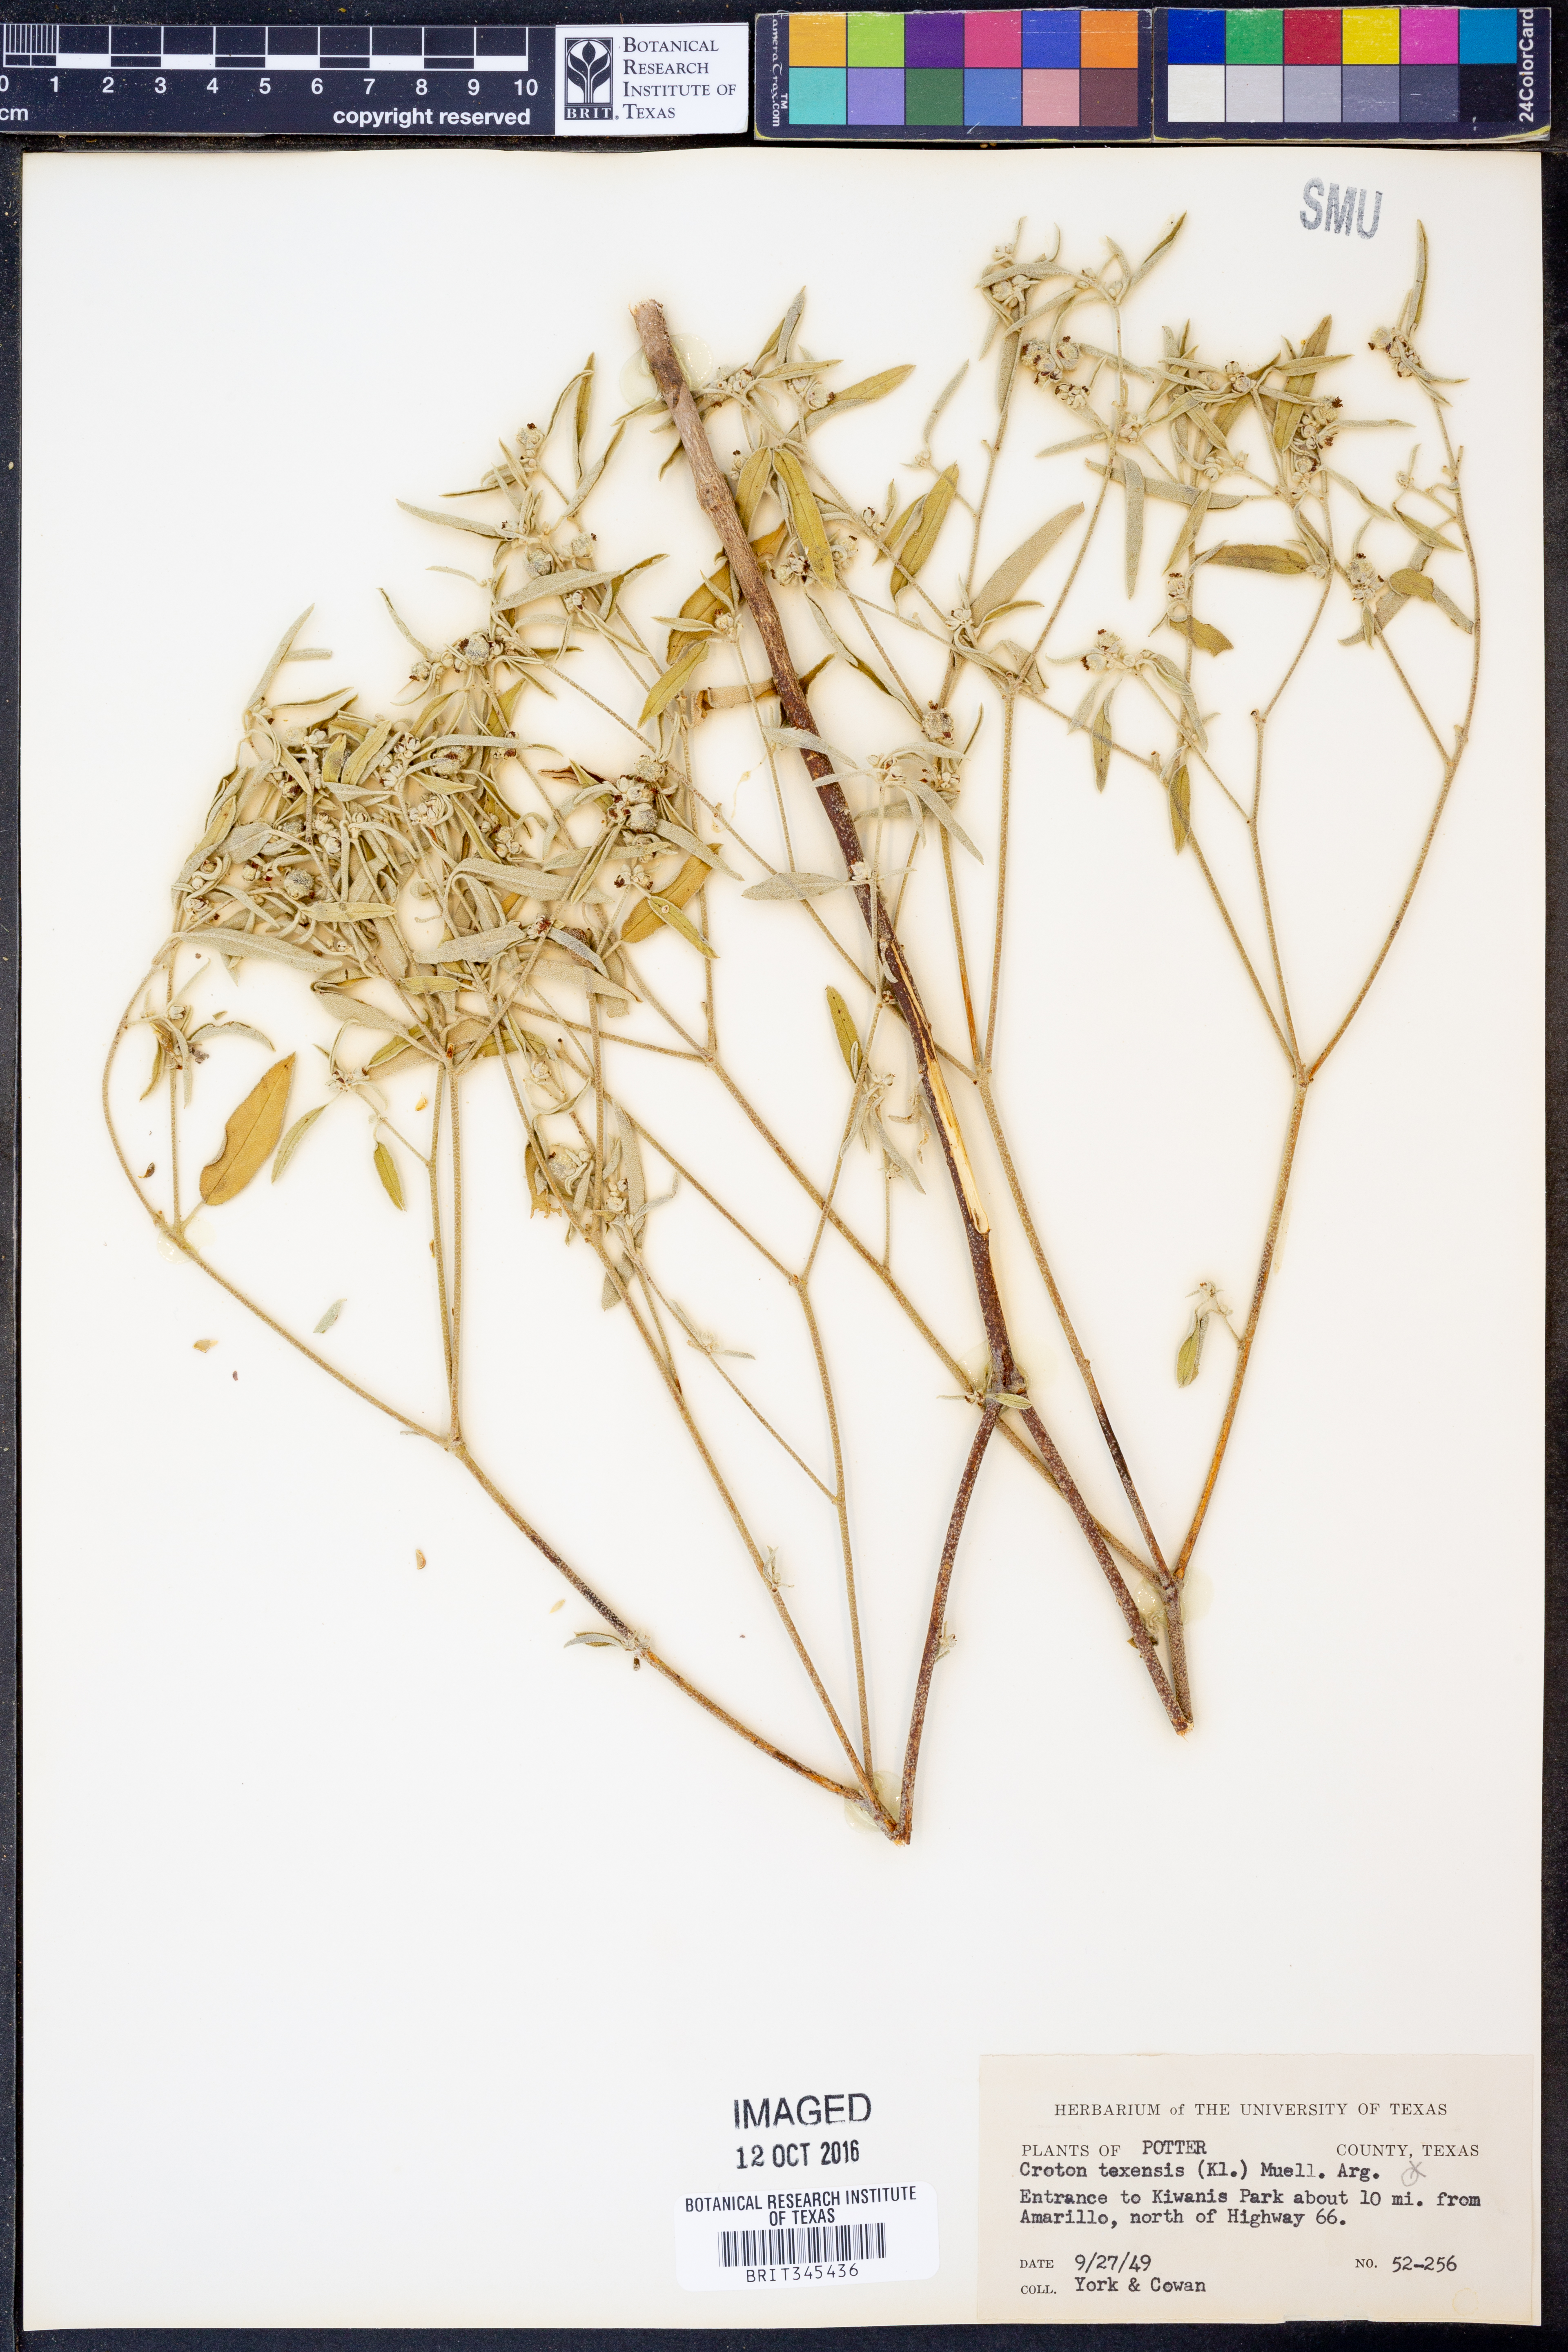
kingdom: Plantae
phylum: Tracheophyta
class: Magnoliopsida
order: Malpighiales
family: Euphorbiaceae
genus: Croton
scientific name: Croton texensis
